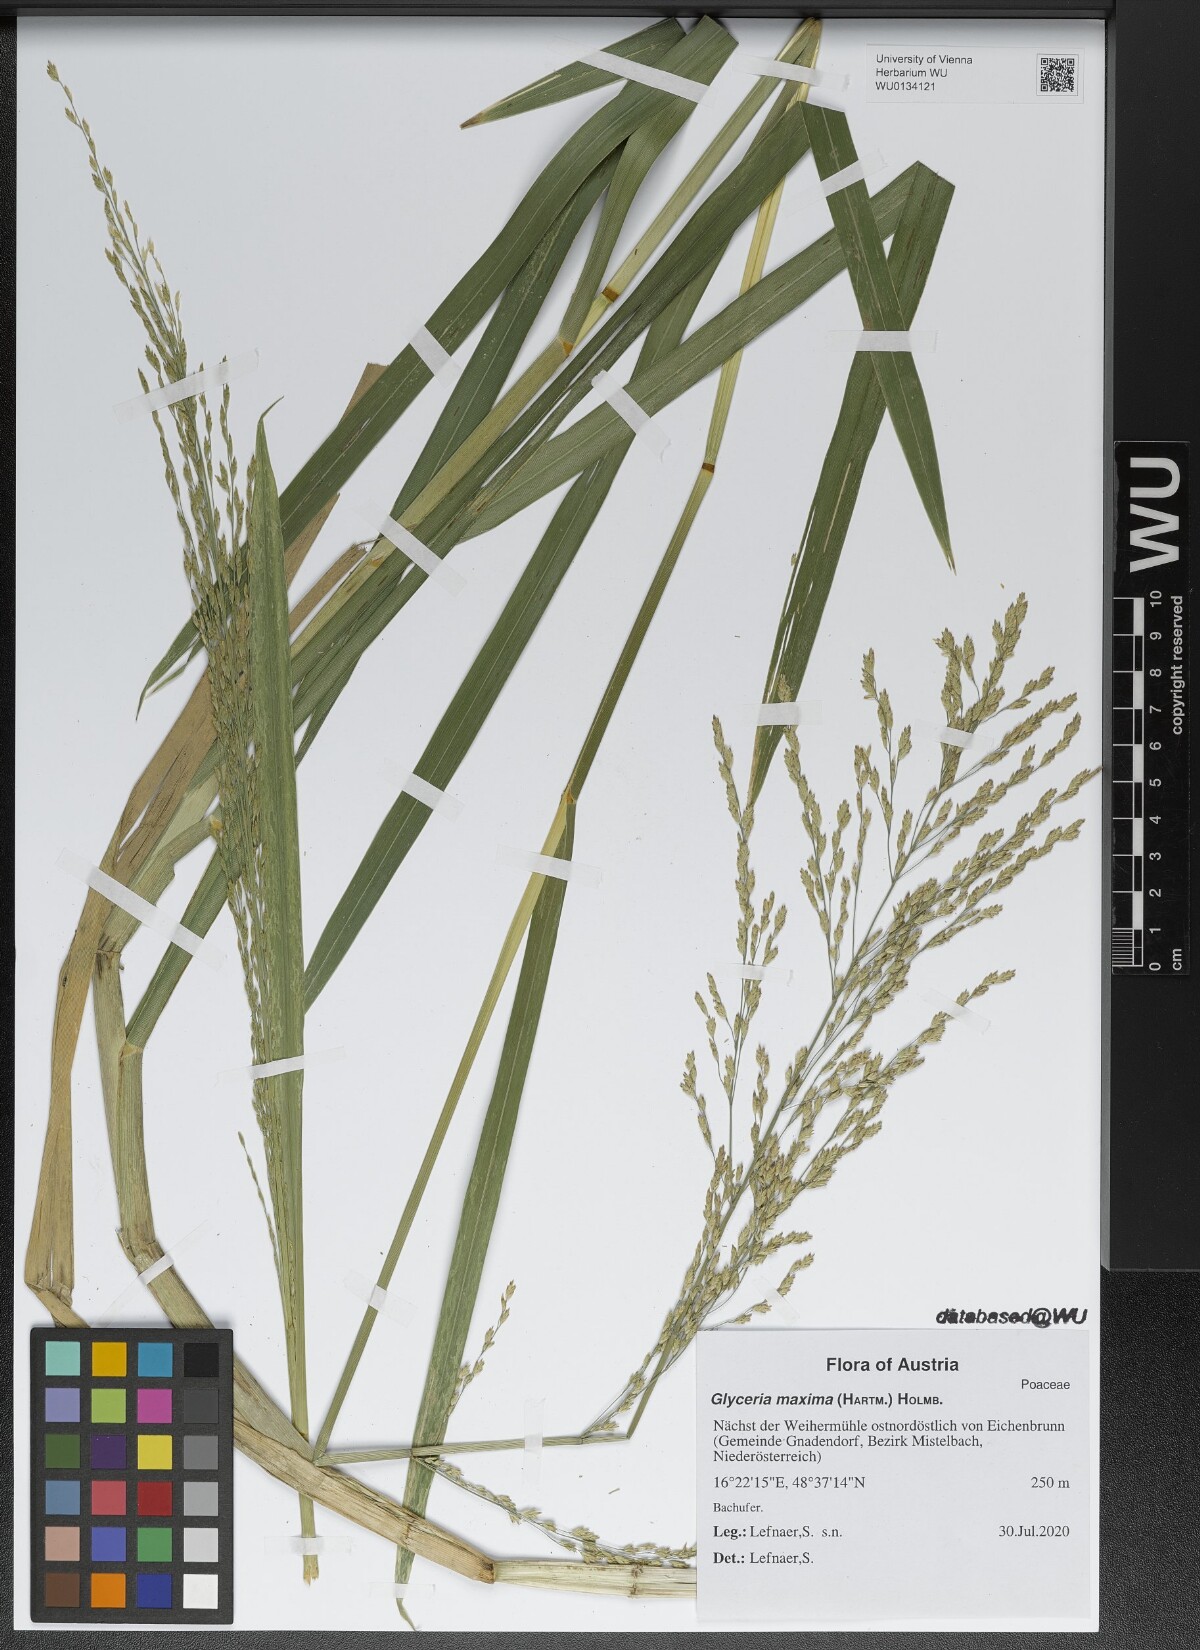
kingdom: Plantae
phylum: Tracheophyta
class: Liliopsida
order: Poales
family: Poaceae
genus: Glyceria
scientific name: Glyceria maxima
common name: Reed mannagrass
